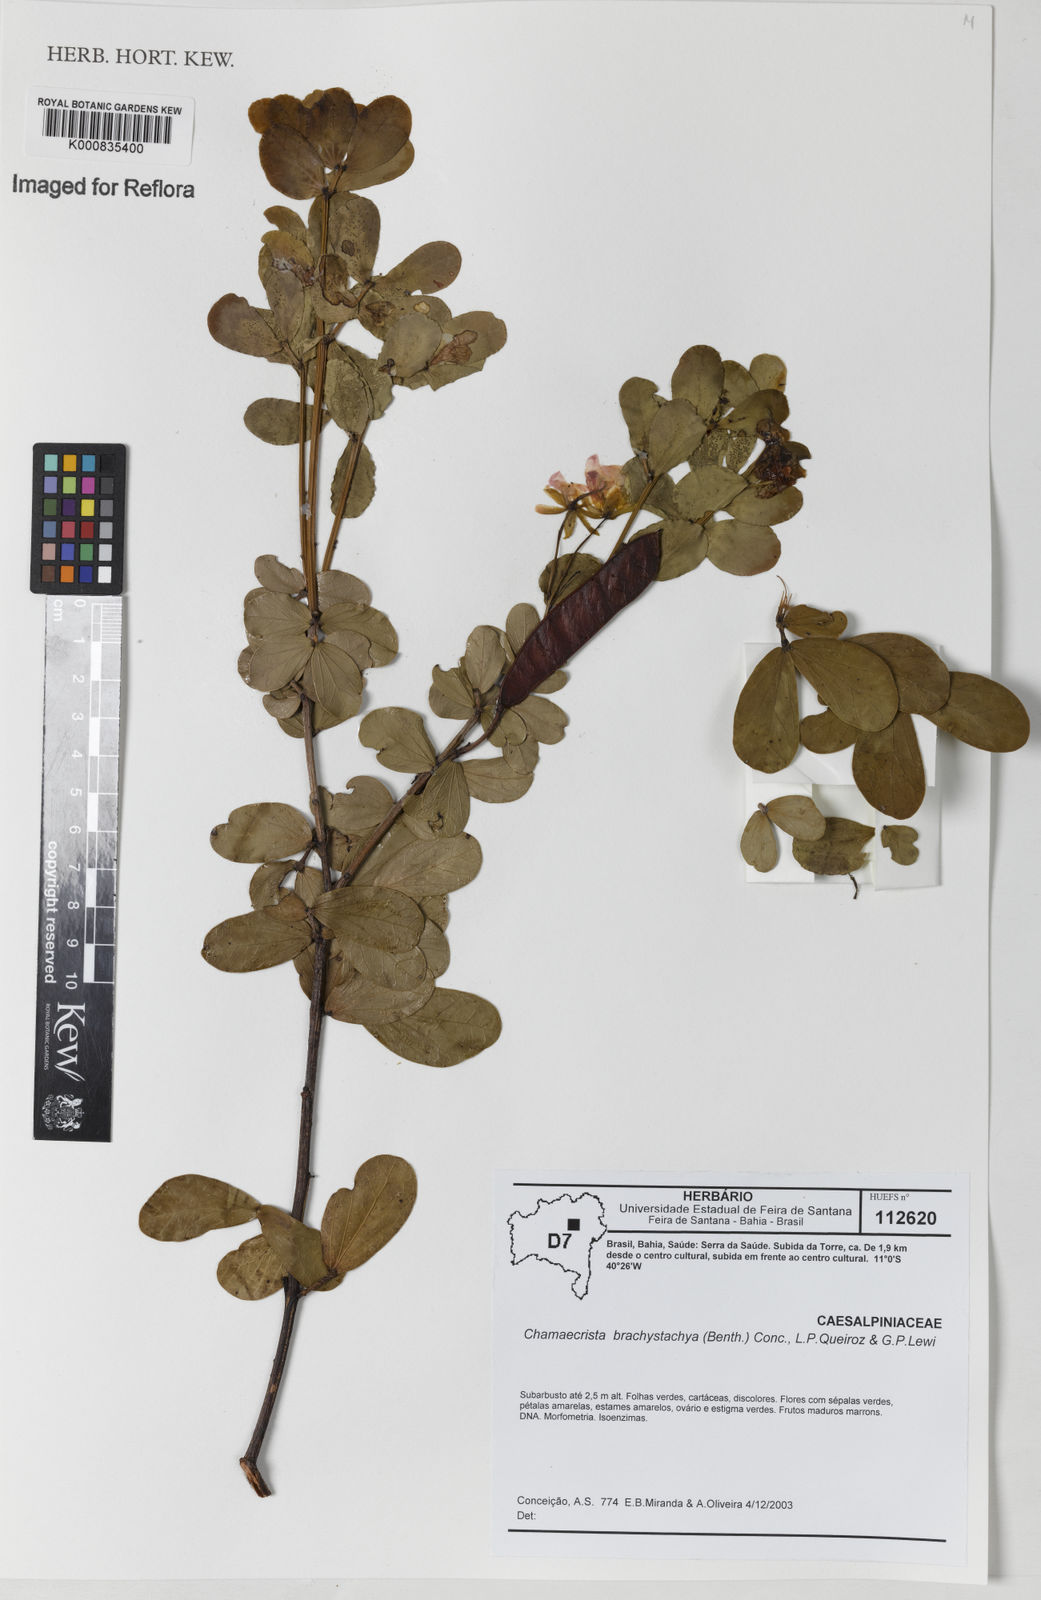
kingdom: Plantae
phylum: Tracheophyta
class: Magnoliopsida
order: Fabales
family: Fabaceae
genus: Chamaecrista
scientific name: Chamaecrista cytisoides
